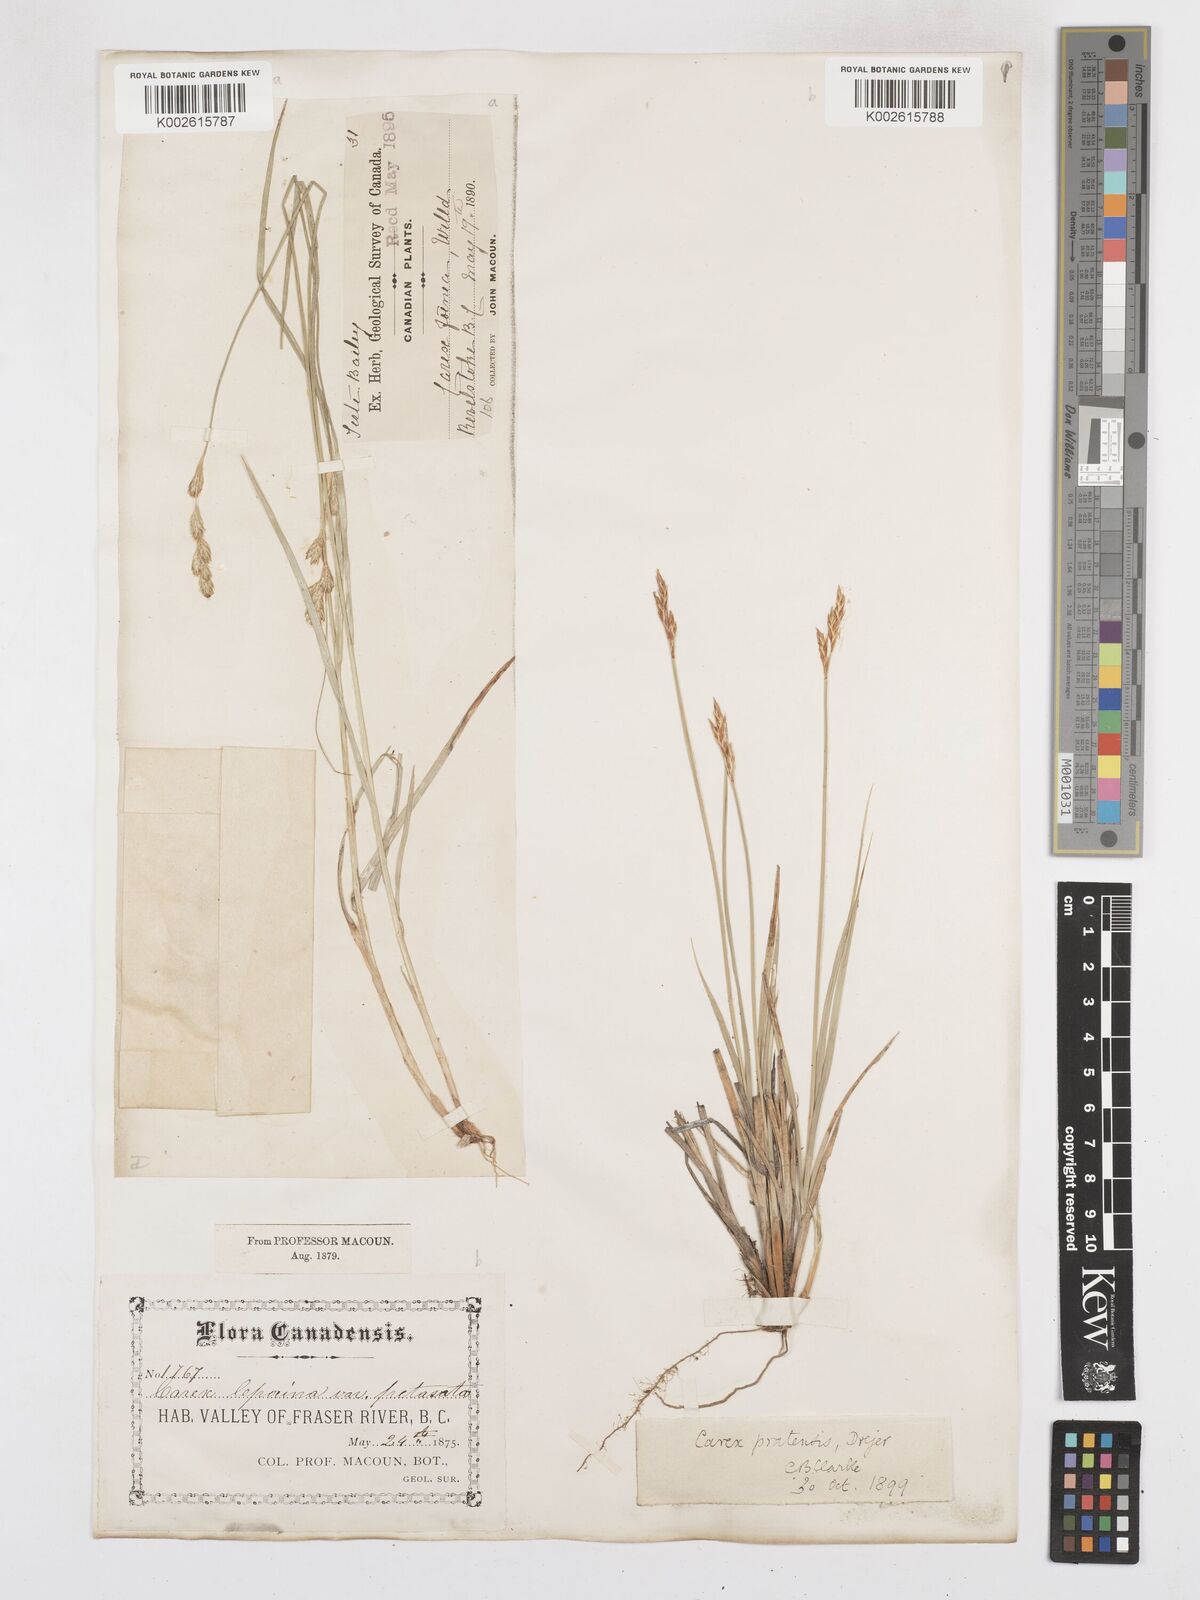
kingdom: Plantae
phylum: Tracheophyta
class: Liliopsida
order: Poales
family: Cyperaceae
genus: Carex
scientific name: Carex praticola
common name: Large-fruited oval sedge
